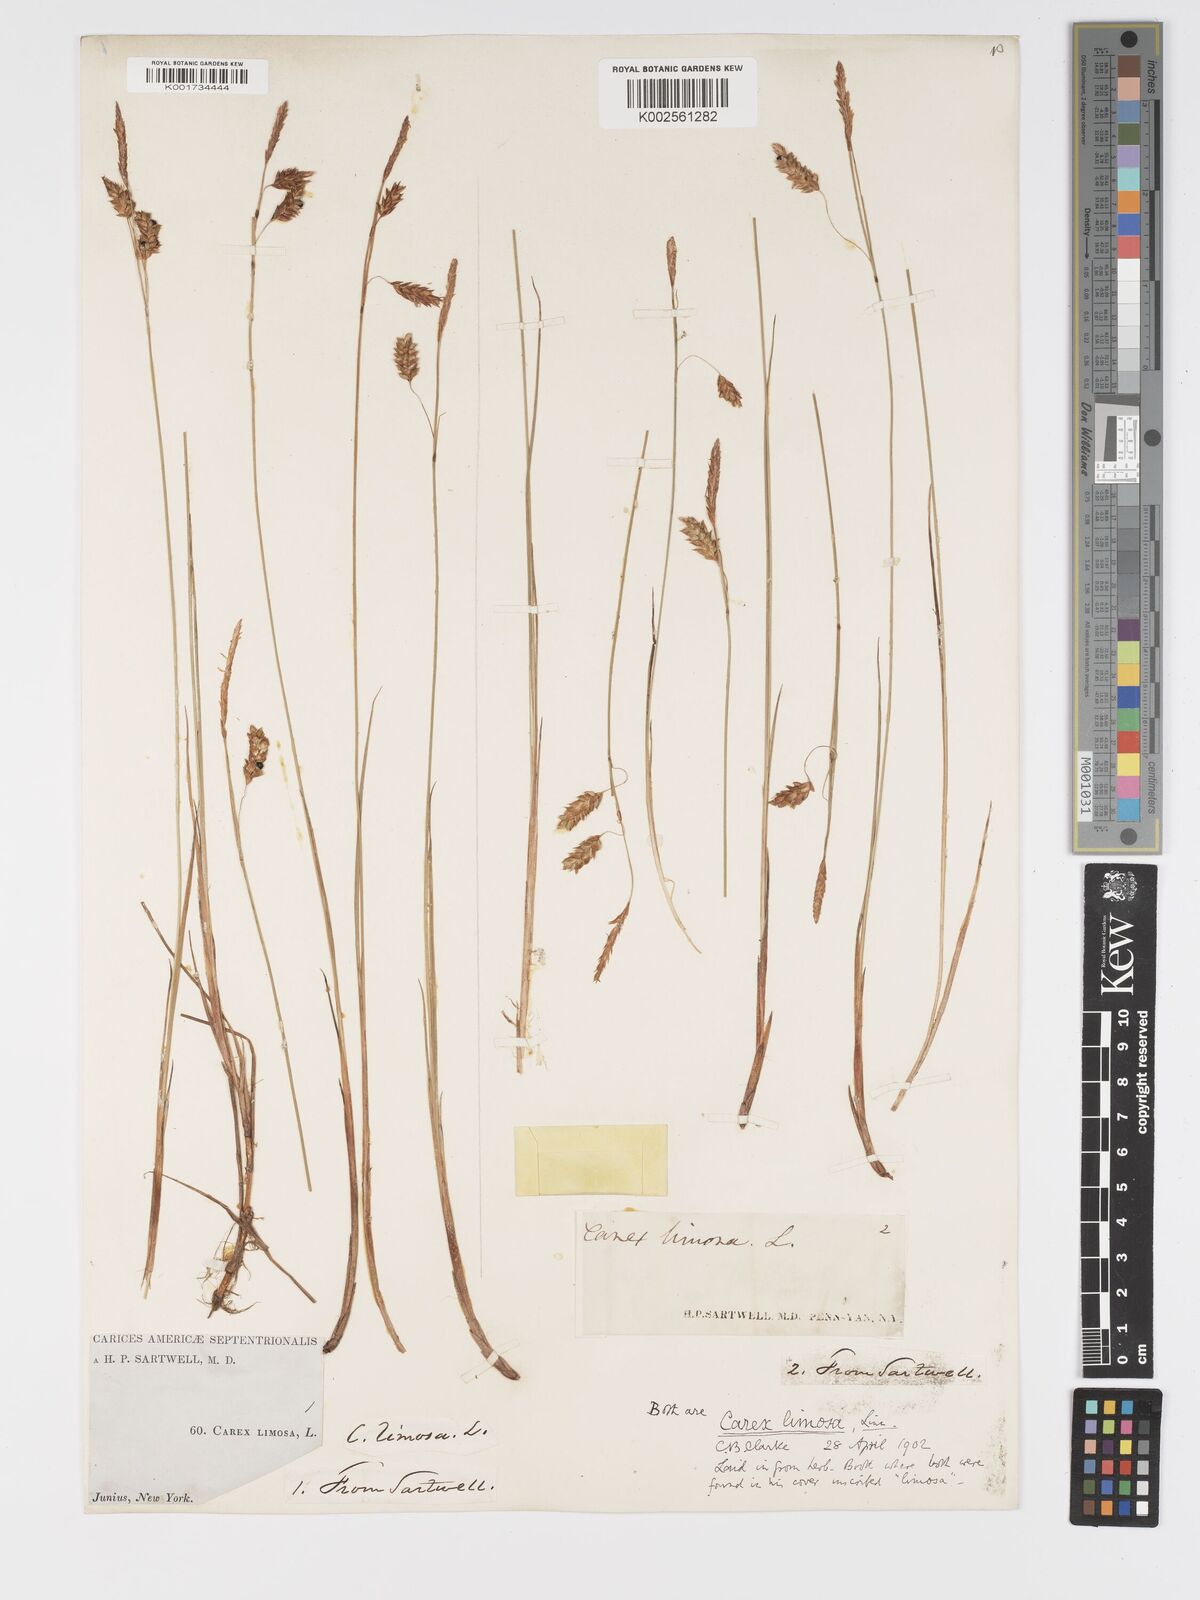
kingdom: Plantae
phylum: Tracheophyta
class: Liliopsida
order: Poales
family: Cyperaceae
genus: Carex
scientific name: Carex limosa
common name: Bog sedge
